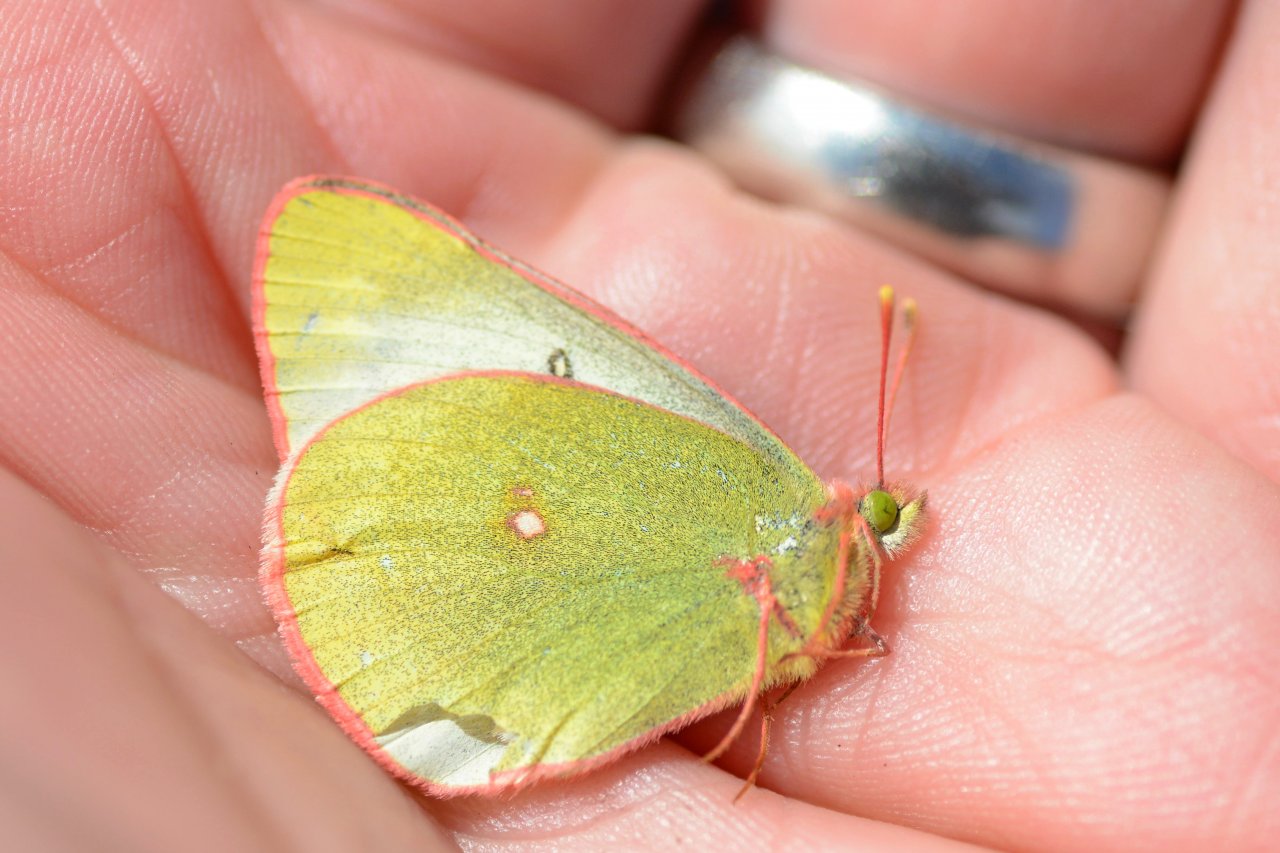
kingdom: Animalia
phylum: Arthropoda
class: Insecta
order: Lepidoptera
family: Pieridae
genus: Colias
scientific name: Colias pelidne
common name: Pelidne Sulphur
